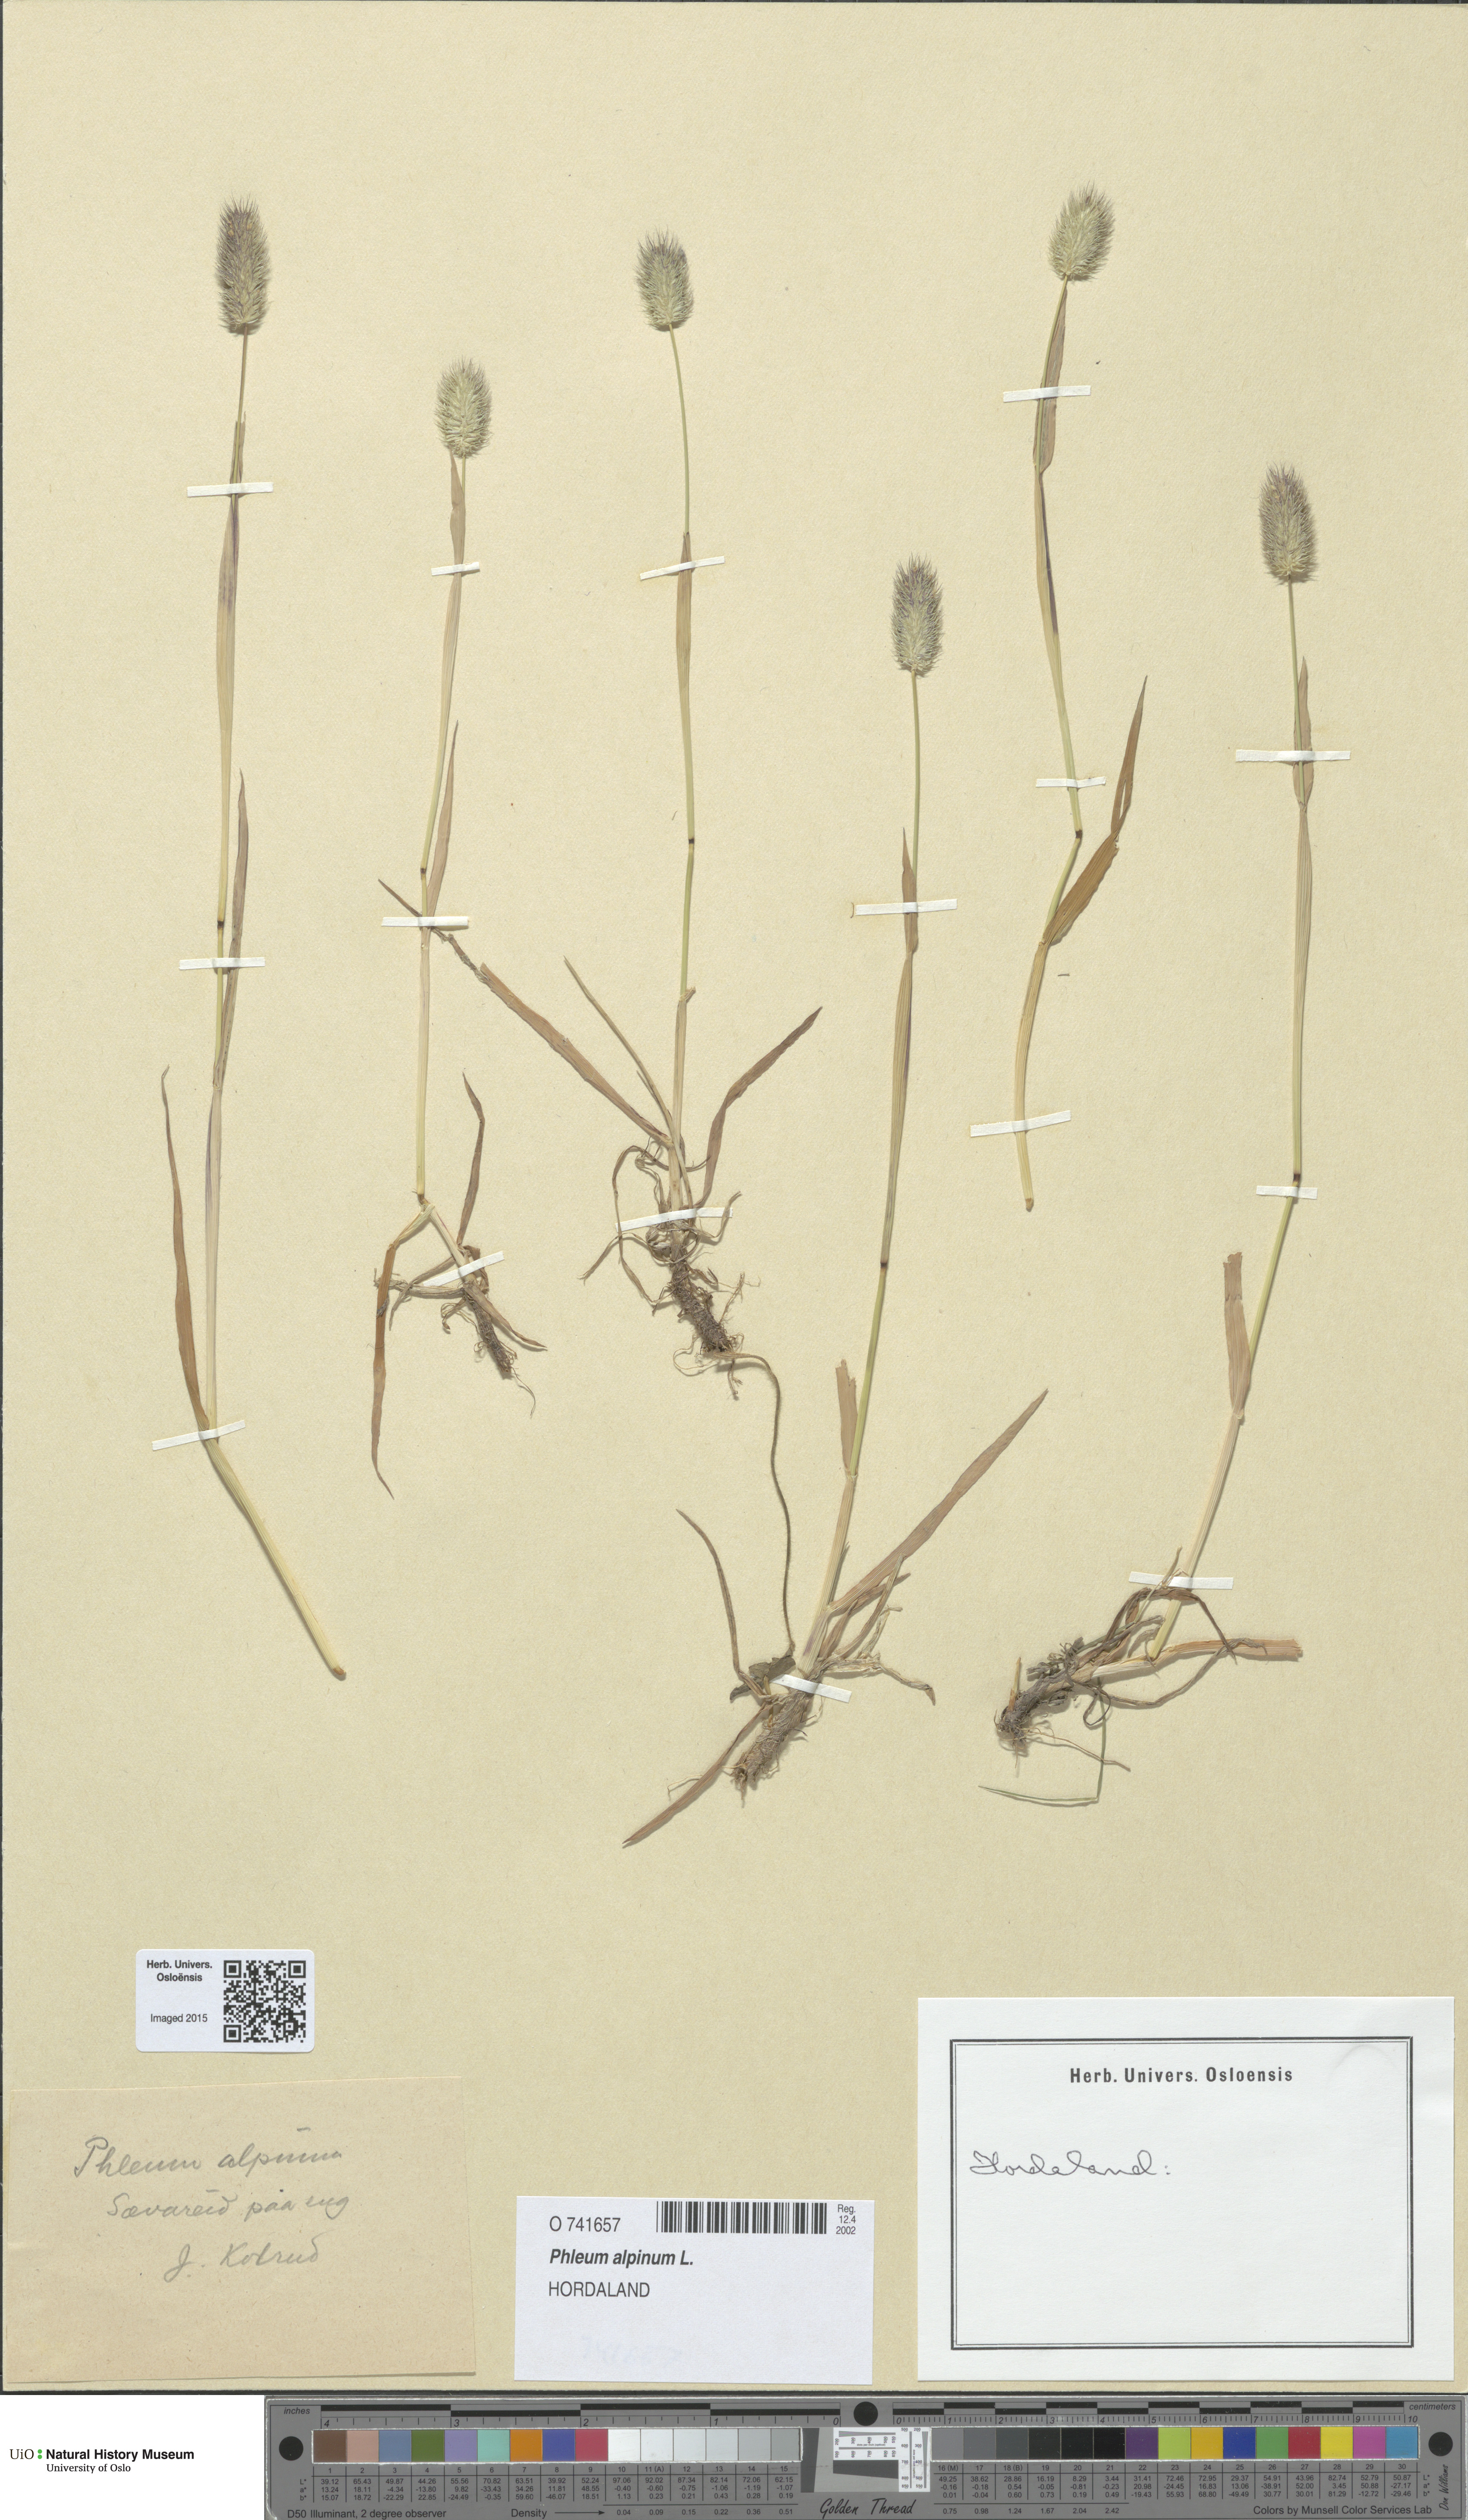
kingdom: Plantae
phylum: Tracheophyta
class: Liliopsida
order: Poales
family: Poaceae
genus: Phleum
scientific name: Phleum alpinum
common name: Alpine cat's-tail
